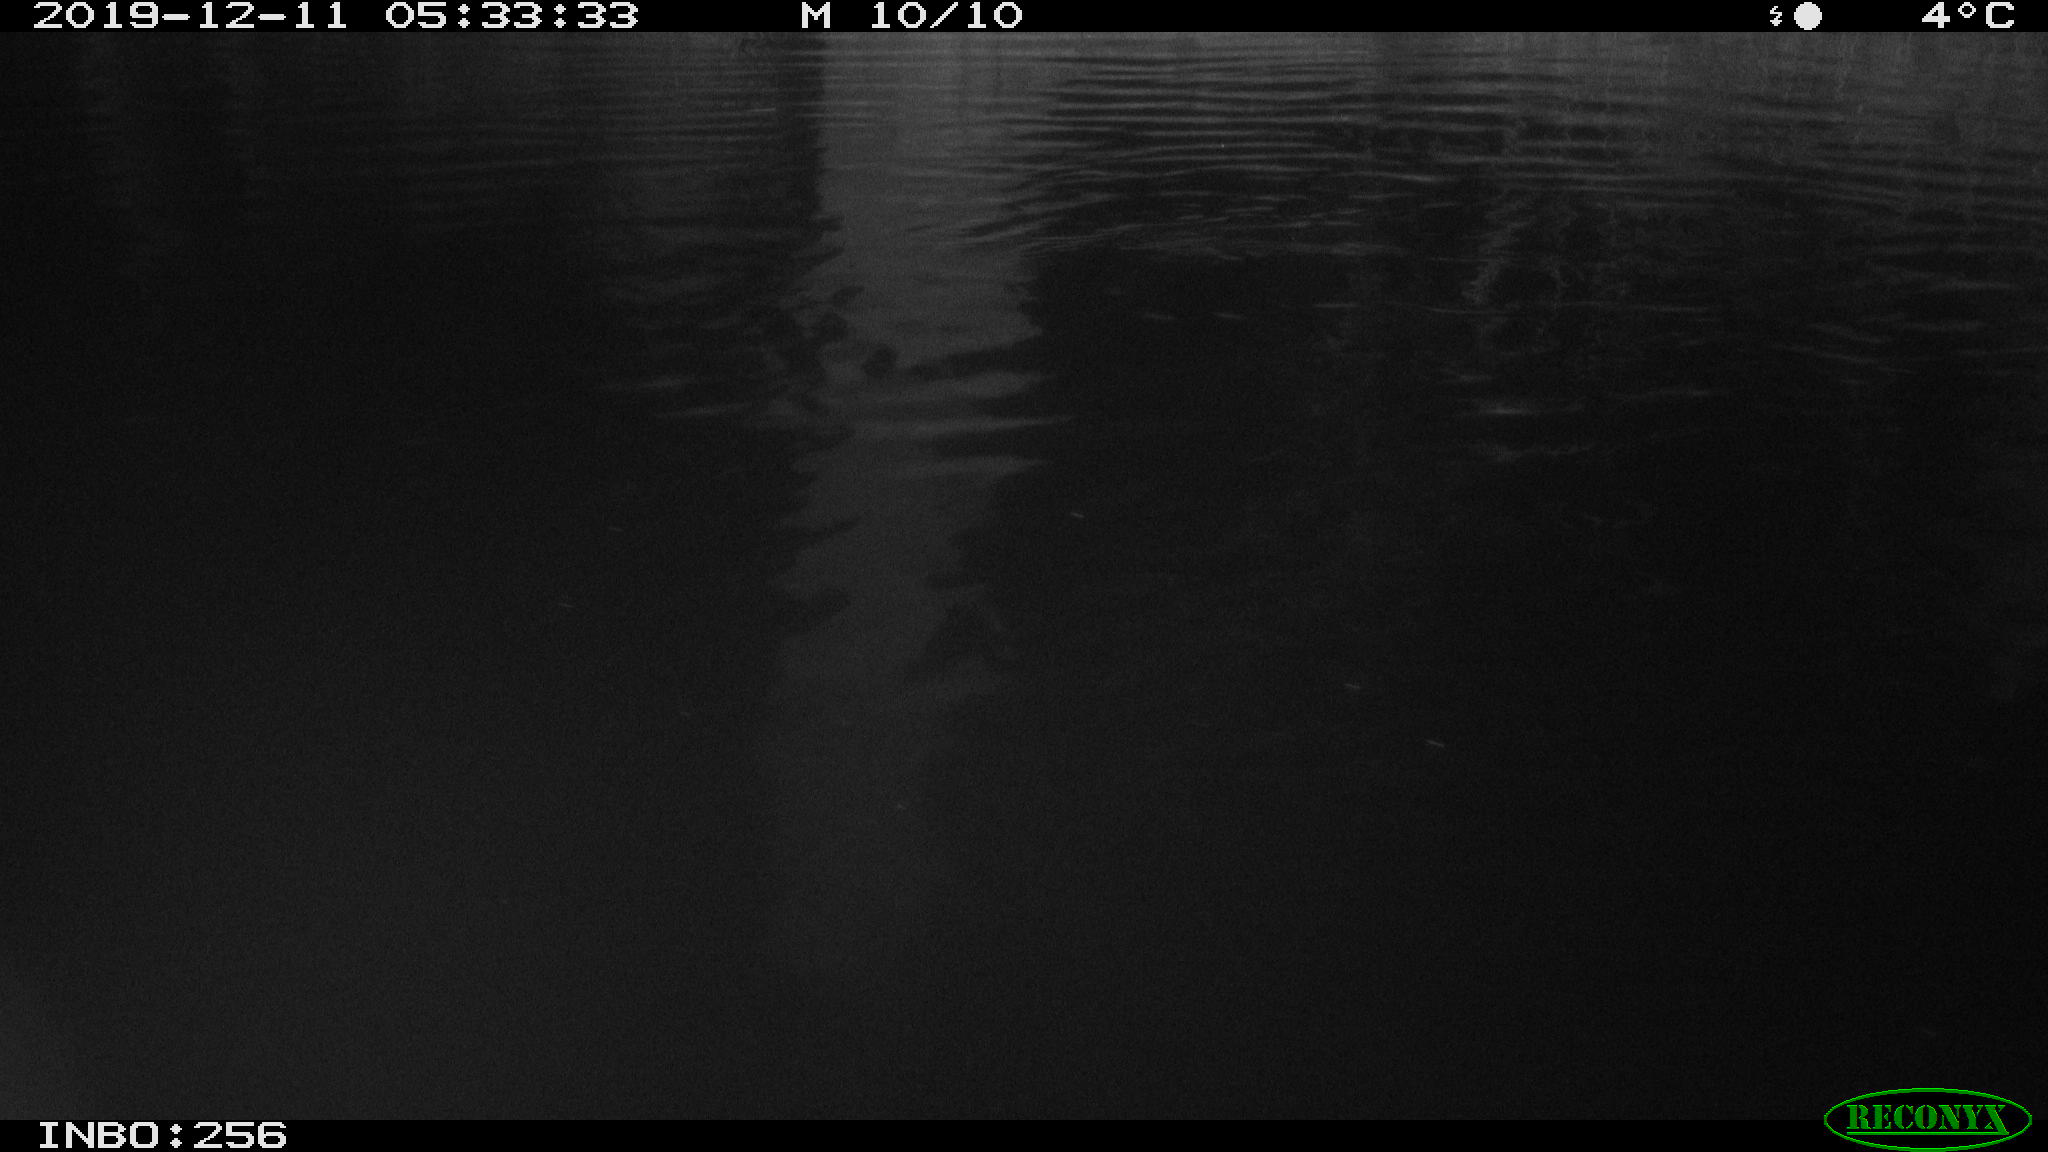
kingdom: Animalia
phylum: Chordata
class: Mammalia
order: Rodentia
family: Muridae
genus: Rattus
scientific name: Rattus norvegicus
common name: Brown rat
